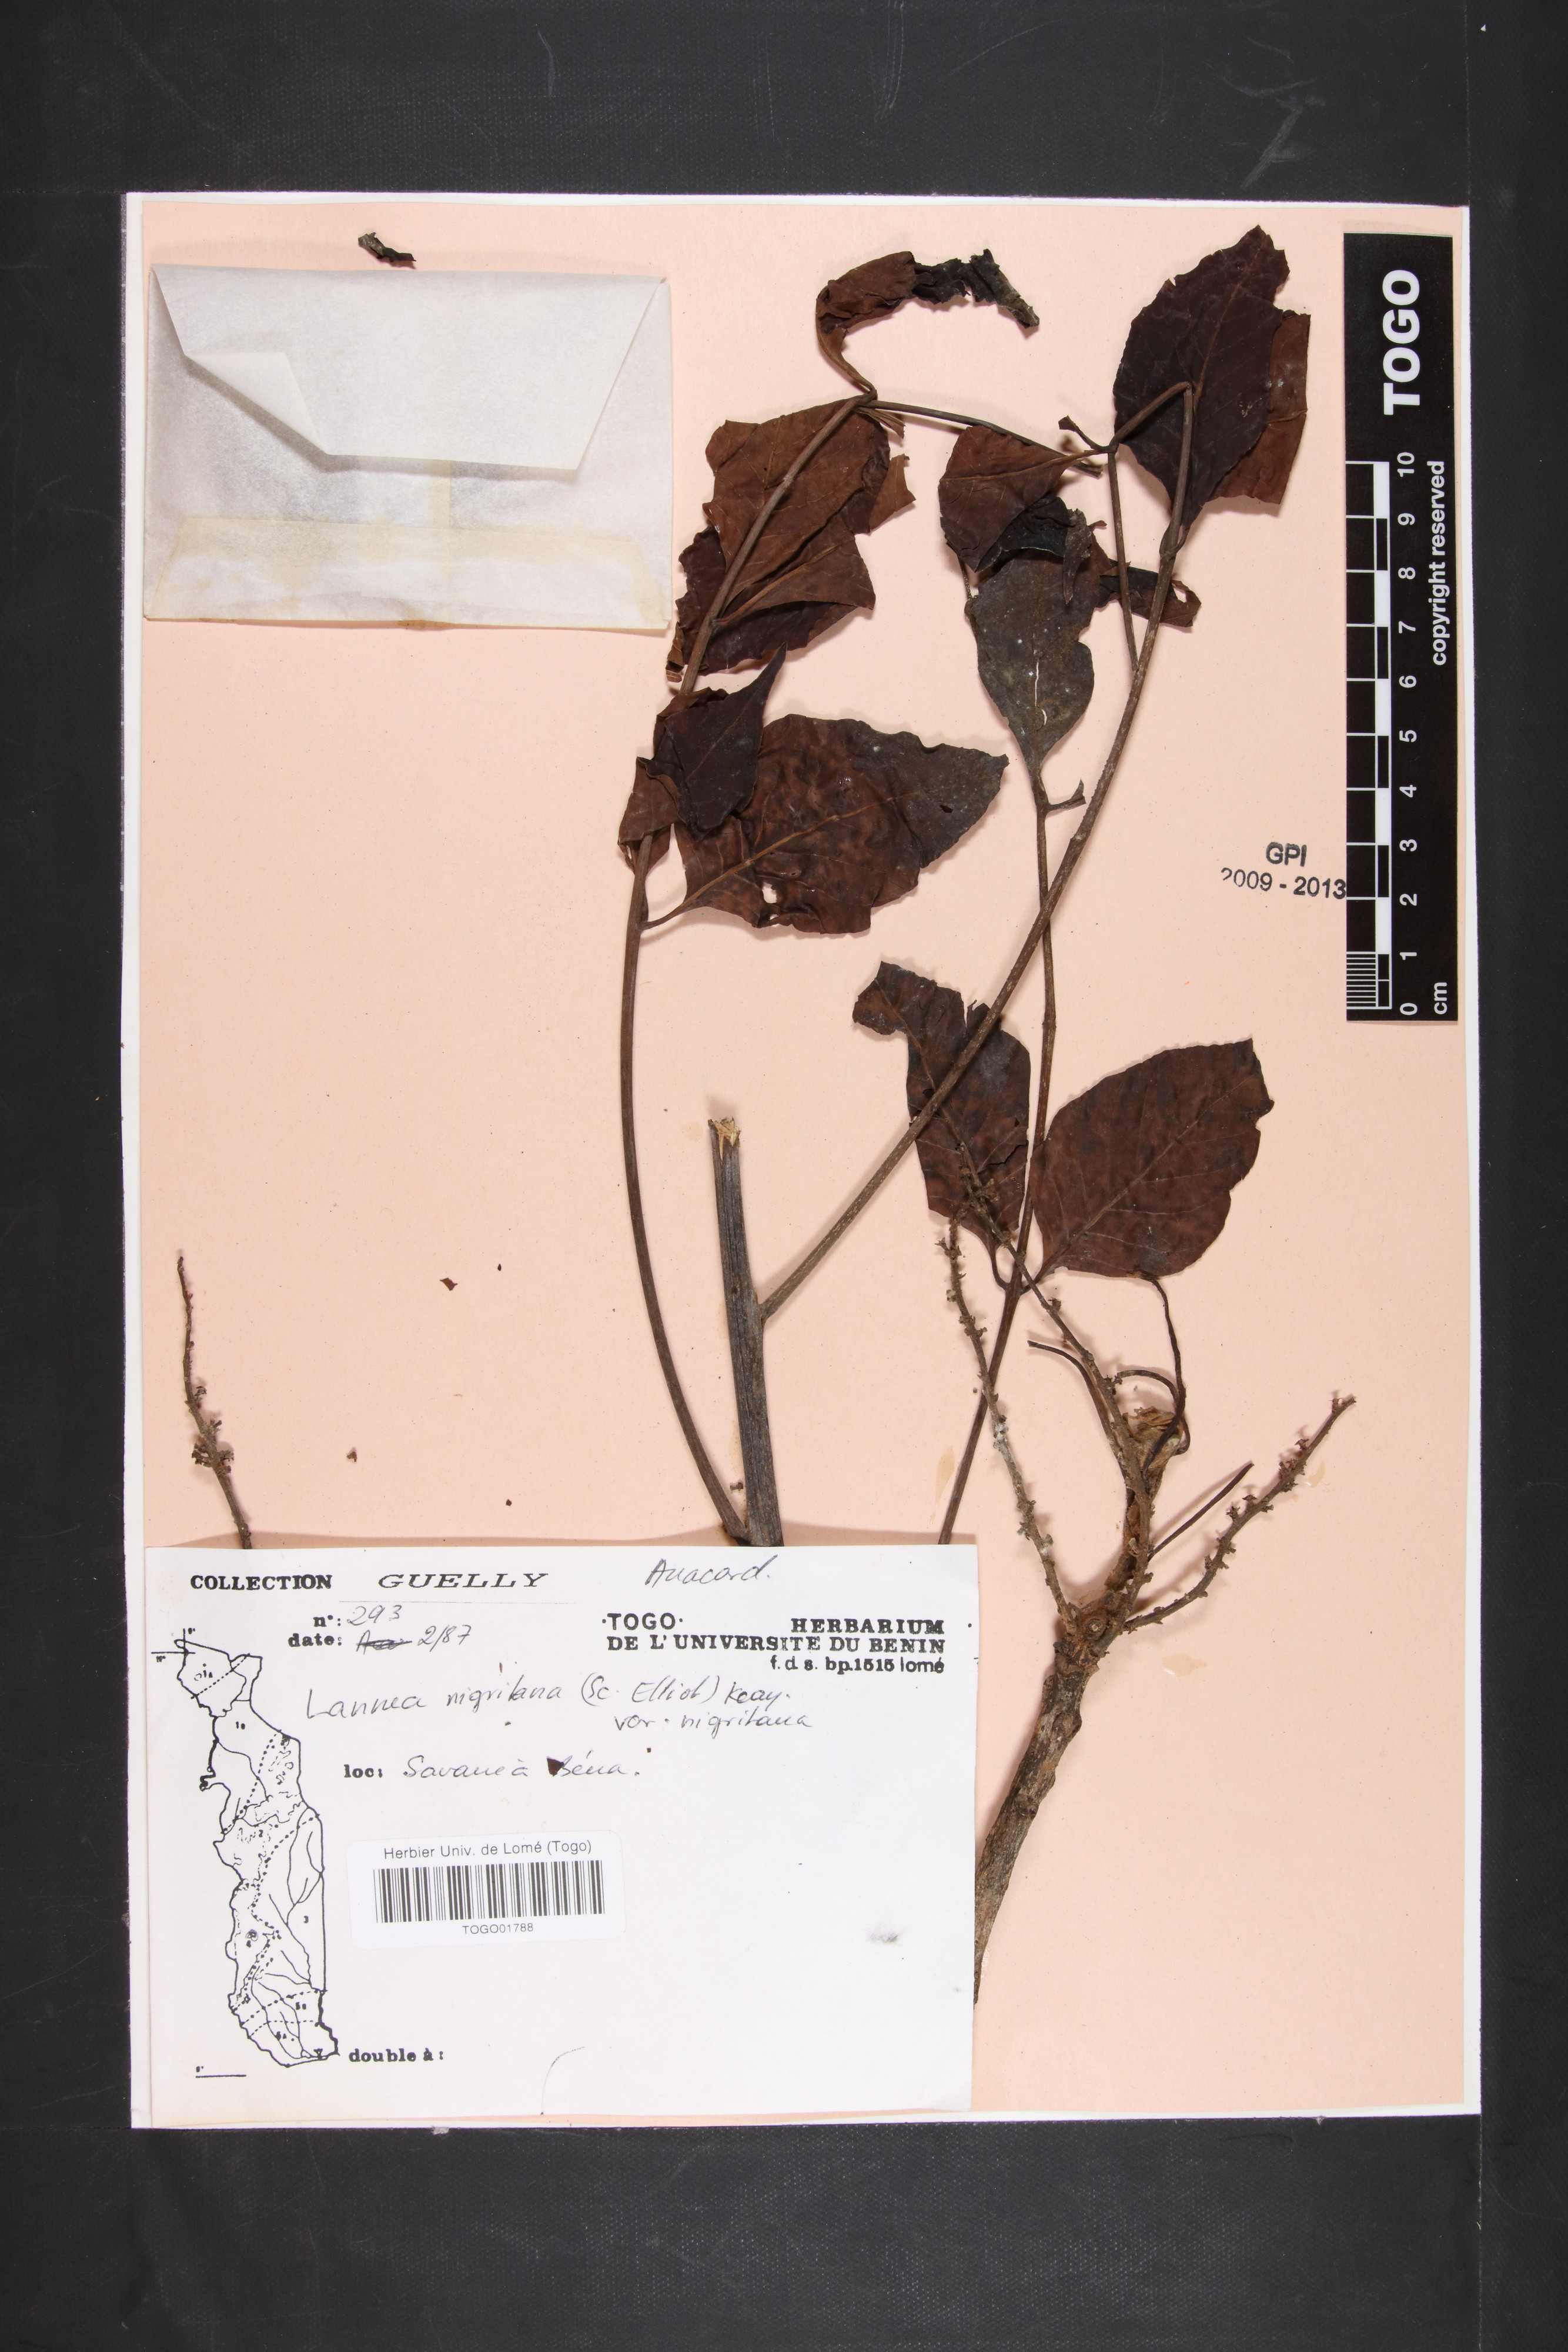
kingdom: Plantae
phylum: Tracheophyta
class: Magnoliopsida
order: Sapindales
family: Anacardiaceae
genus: Lannea
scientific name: Lannea nigritana
